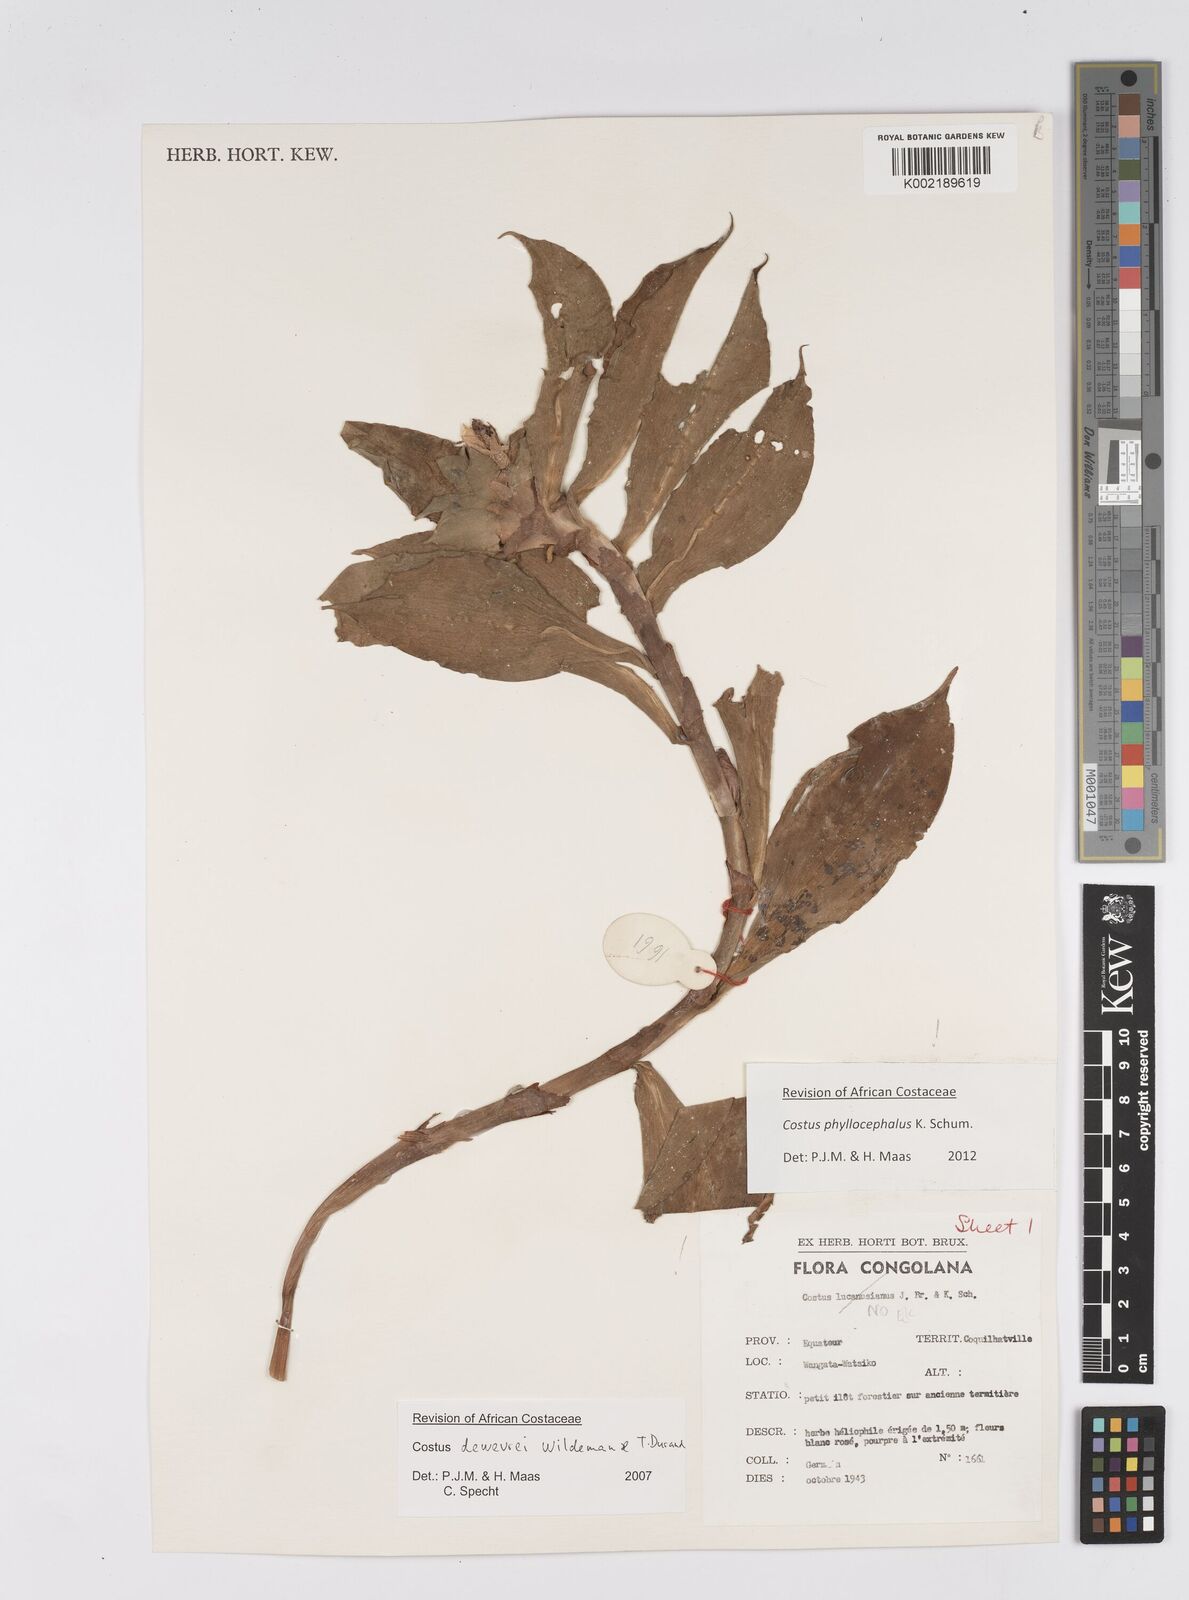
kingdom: Plantae
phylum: Tracheophyta
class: Liliopsida
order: Zingiberales
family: Costaceae
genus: Costus
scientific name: Costus phyllocephalus
